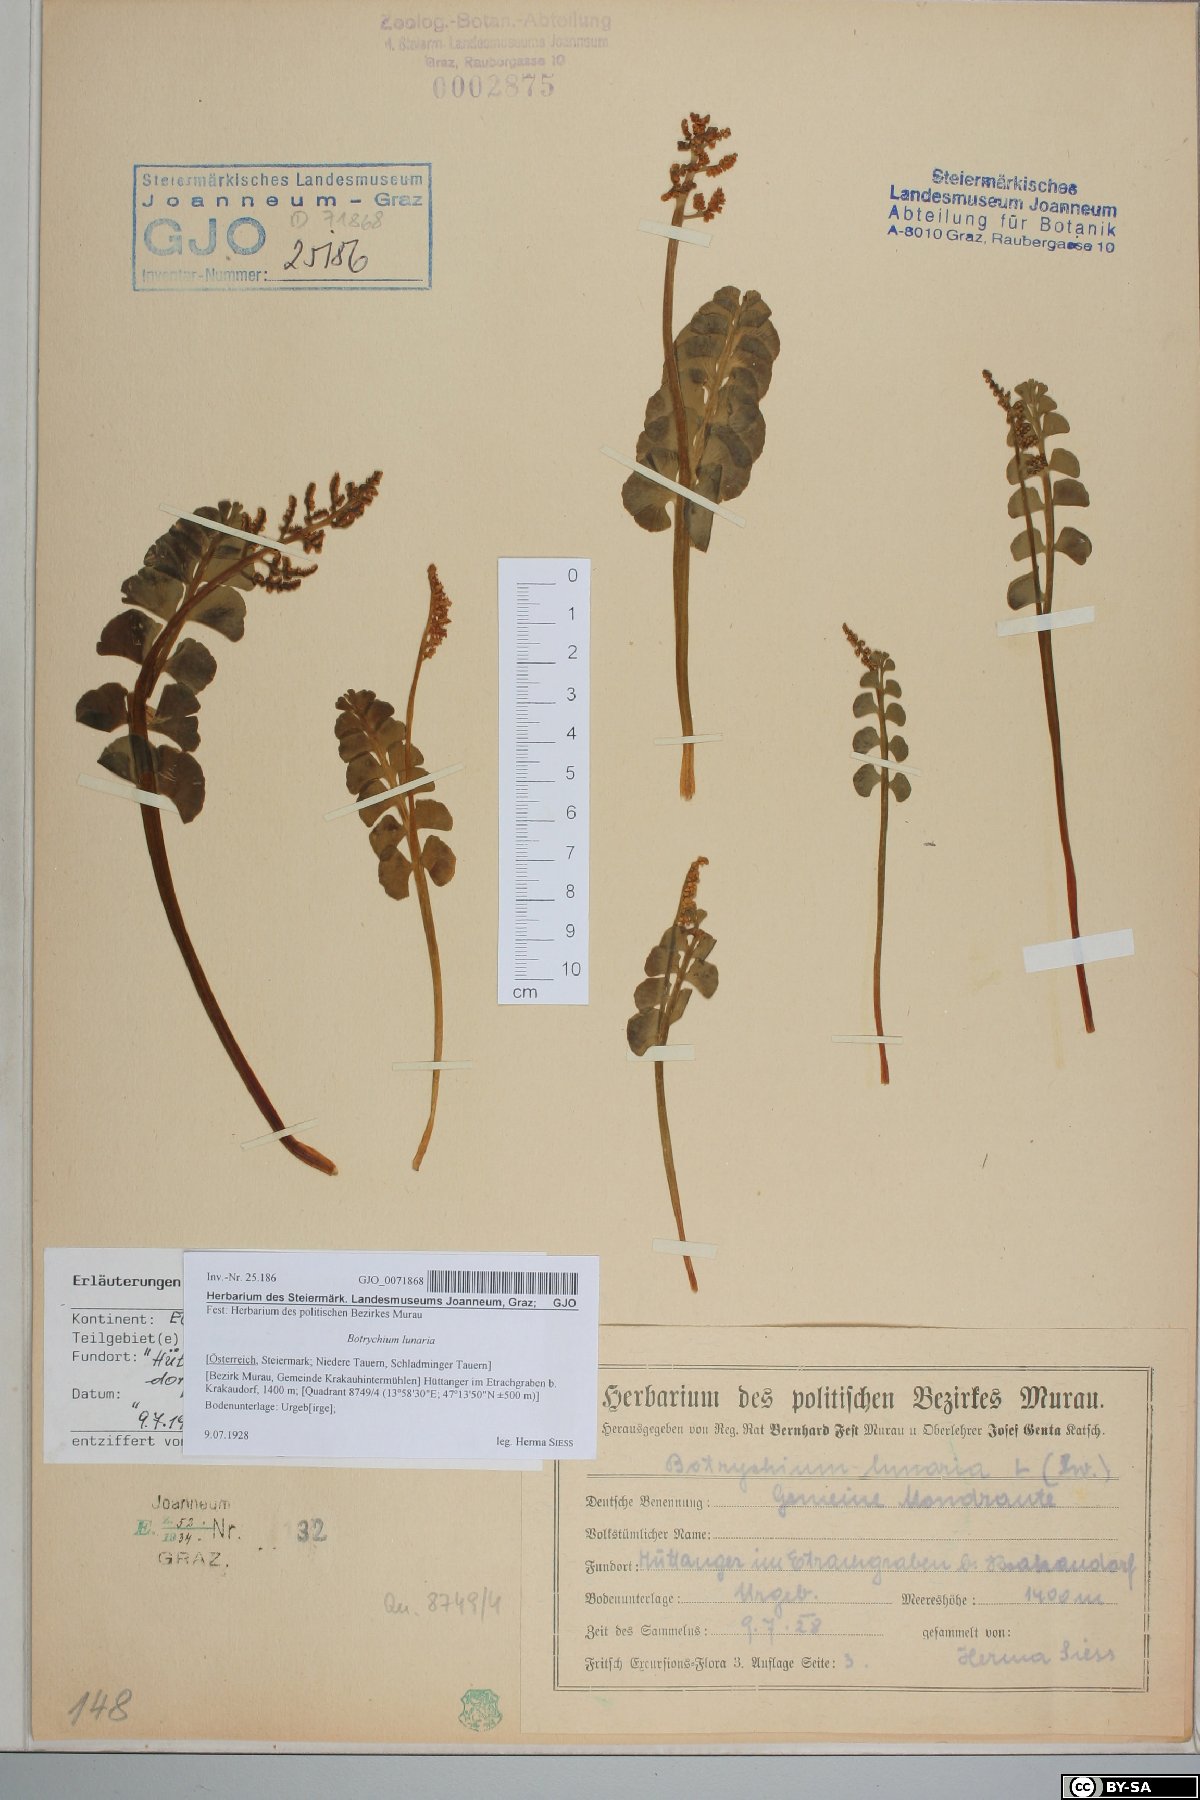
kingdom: Plantae
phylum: Tracheophyta
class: Polypodiopsida
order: Ophioglossales
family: Ophioglossaceae
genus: Botrychium
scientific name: Botrychium lunaria
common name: Moonwort
